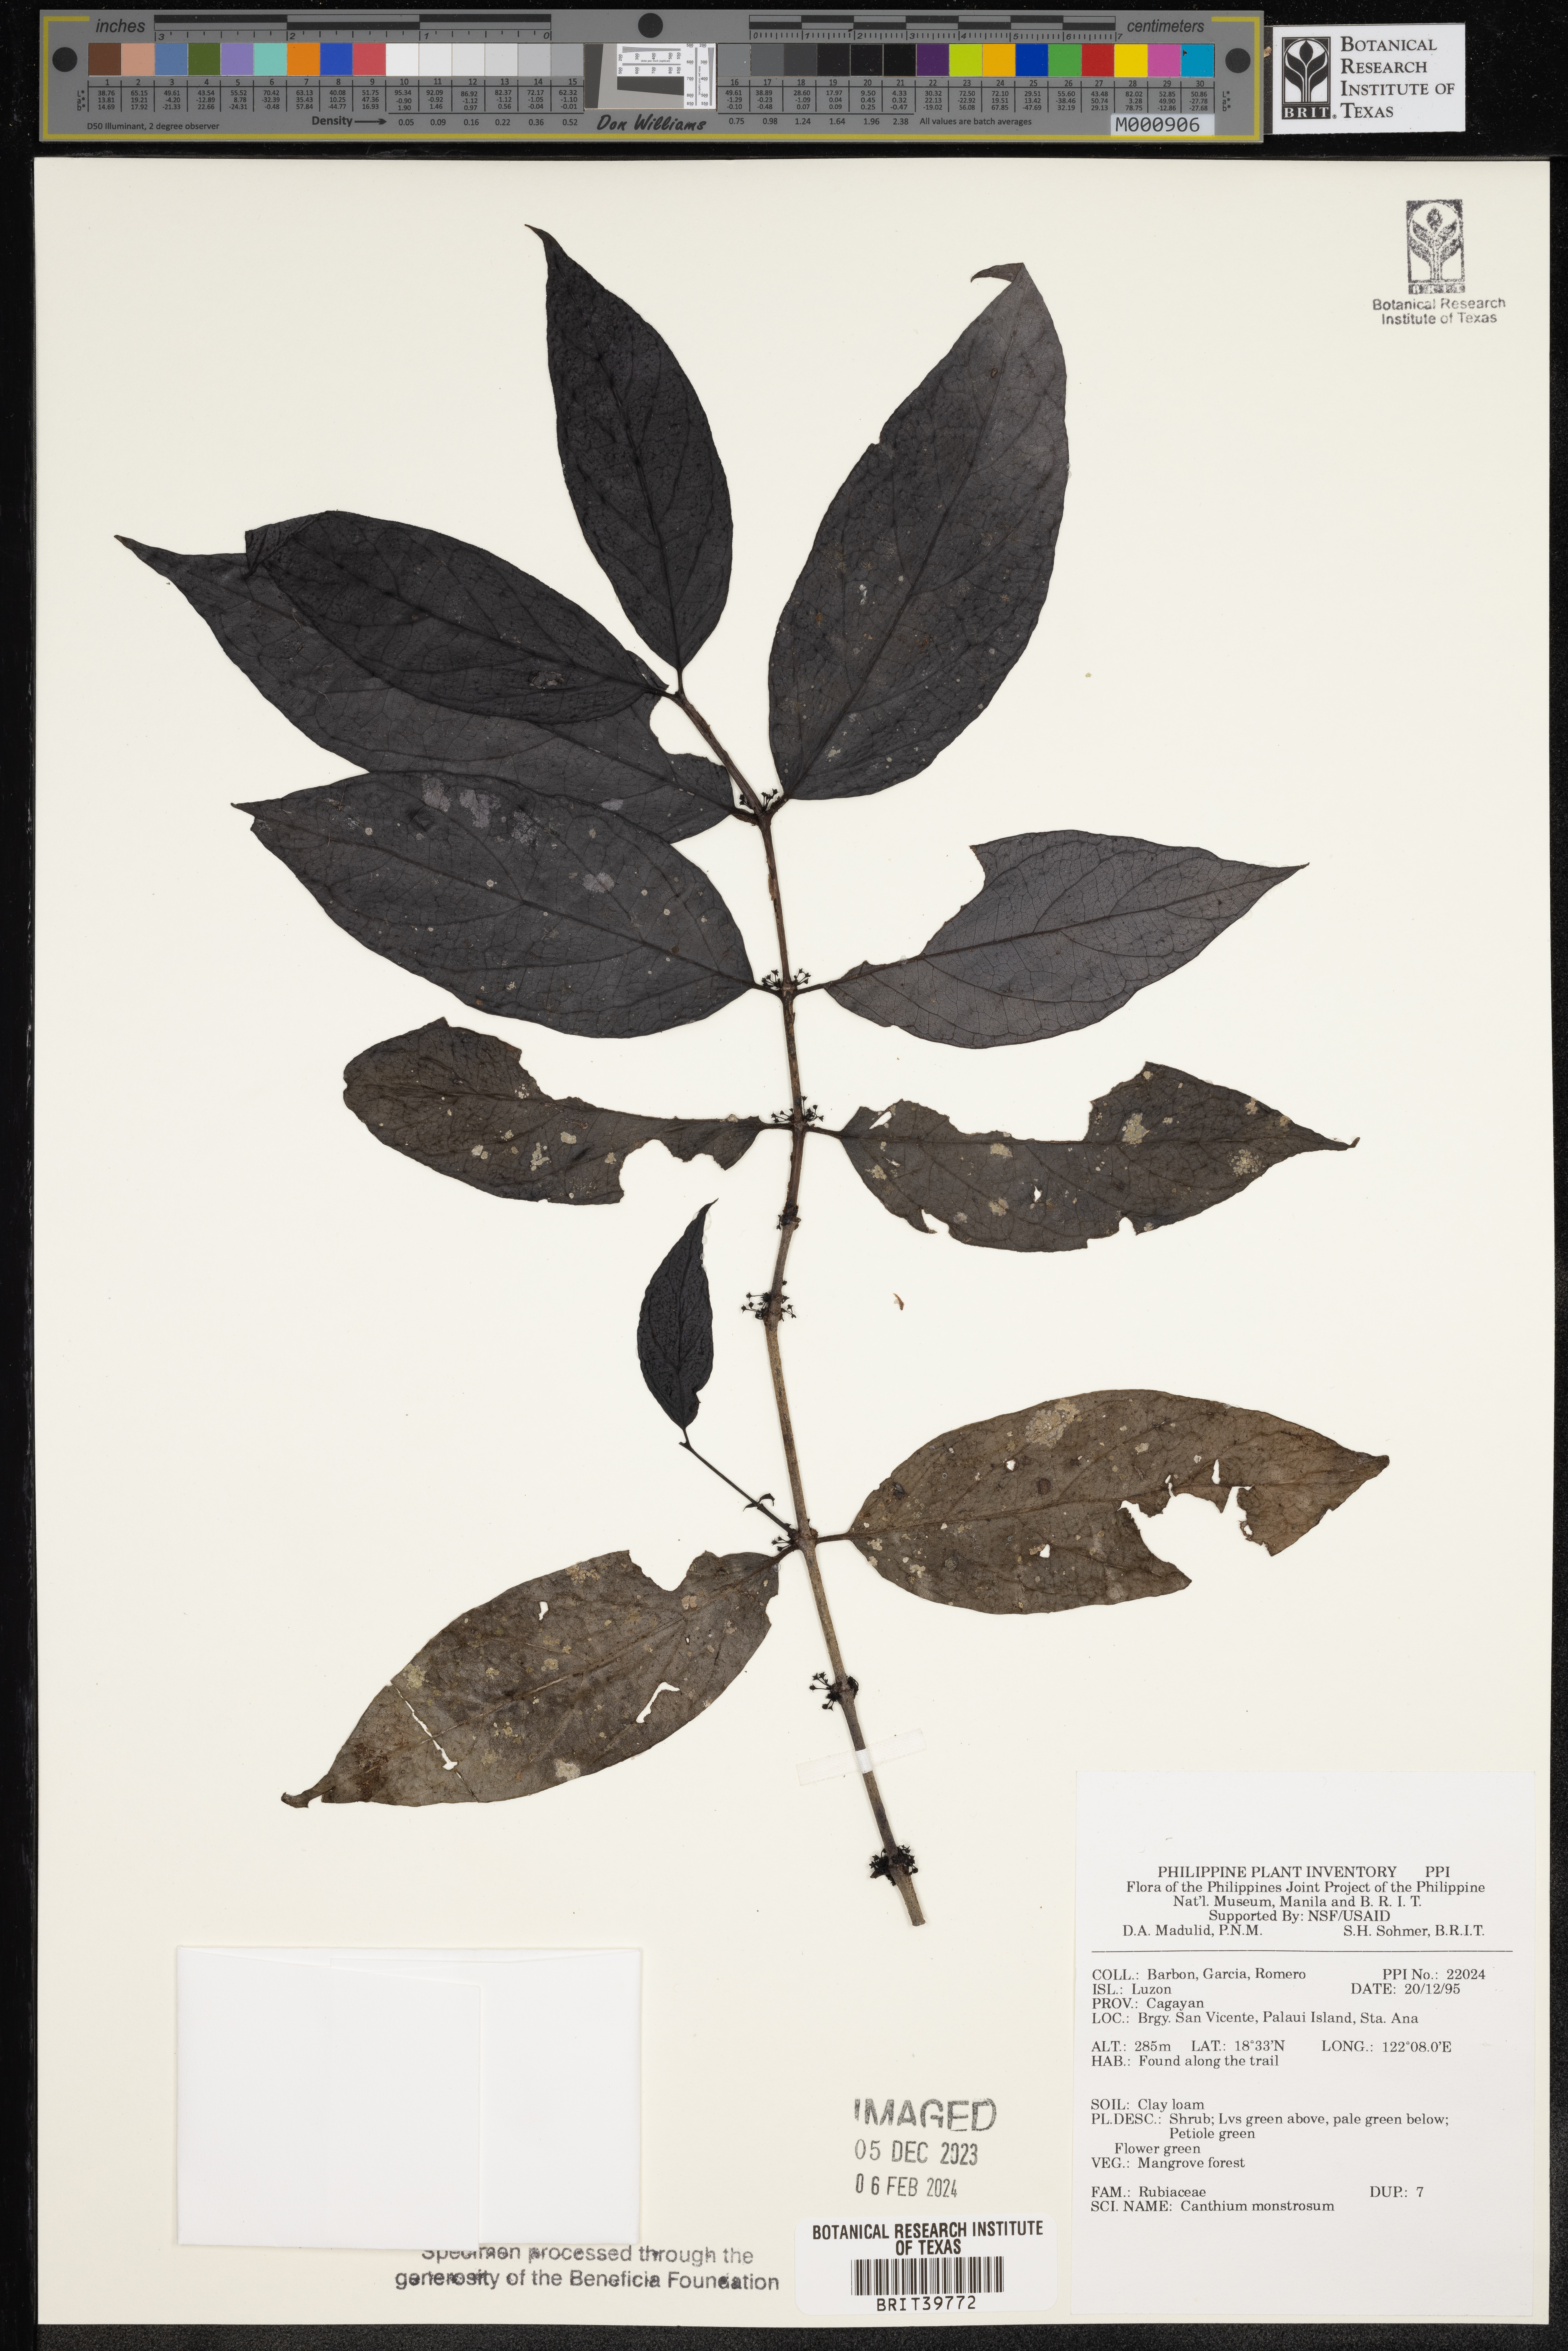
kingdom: Plantae
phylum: Tracheophyta
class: Magnoliopsida
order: Gentianales
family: Rubiaceae
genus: Kanapia
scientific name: Kanapia monstrosa
